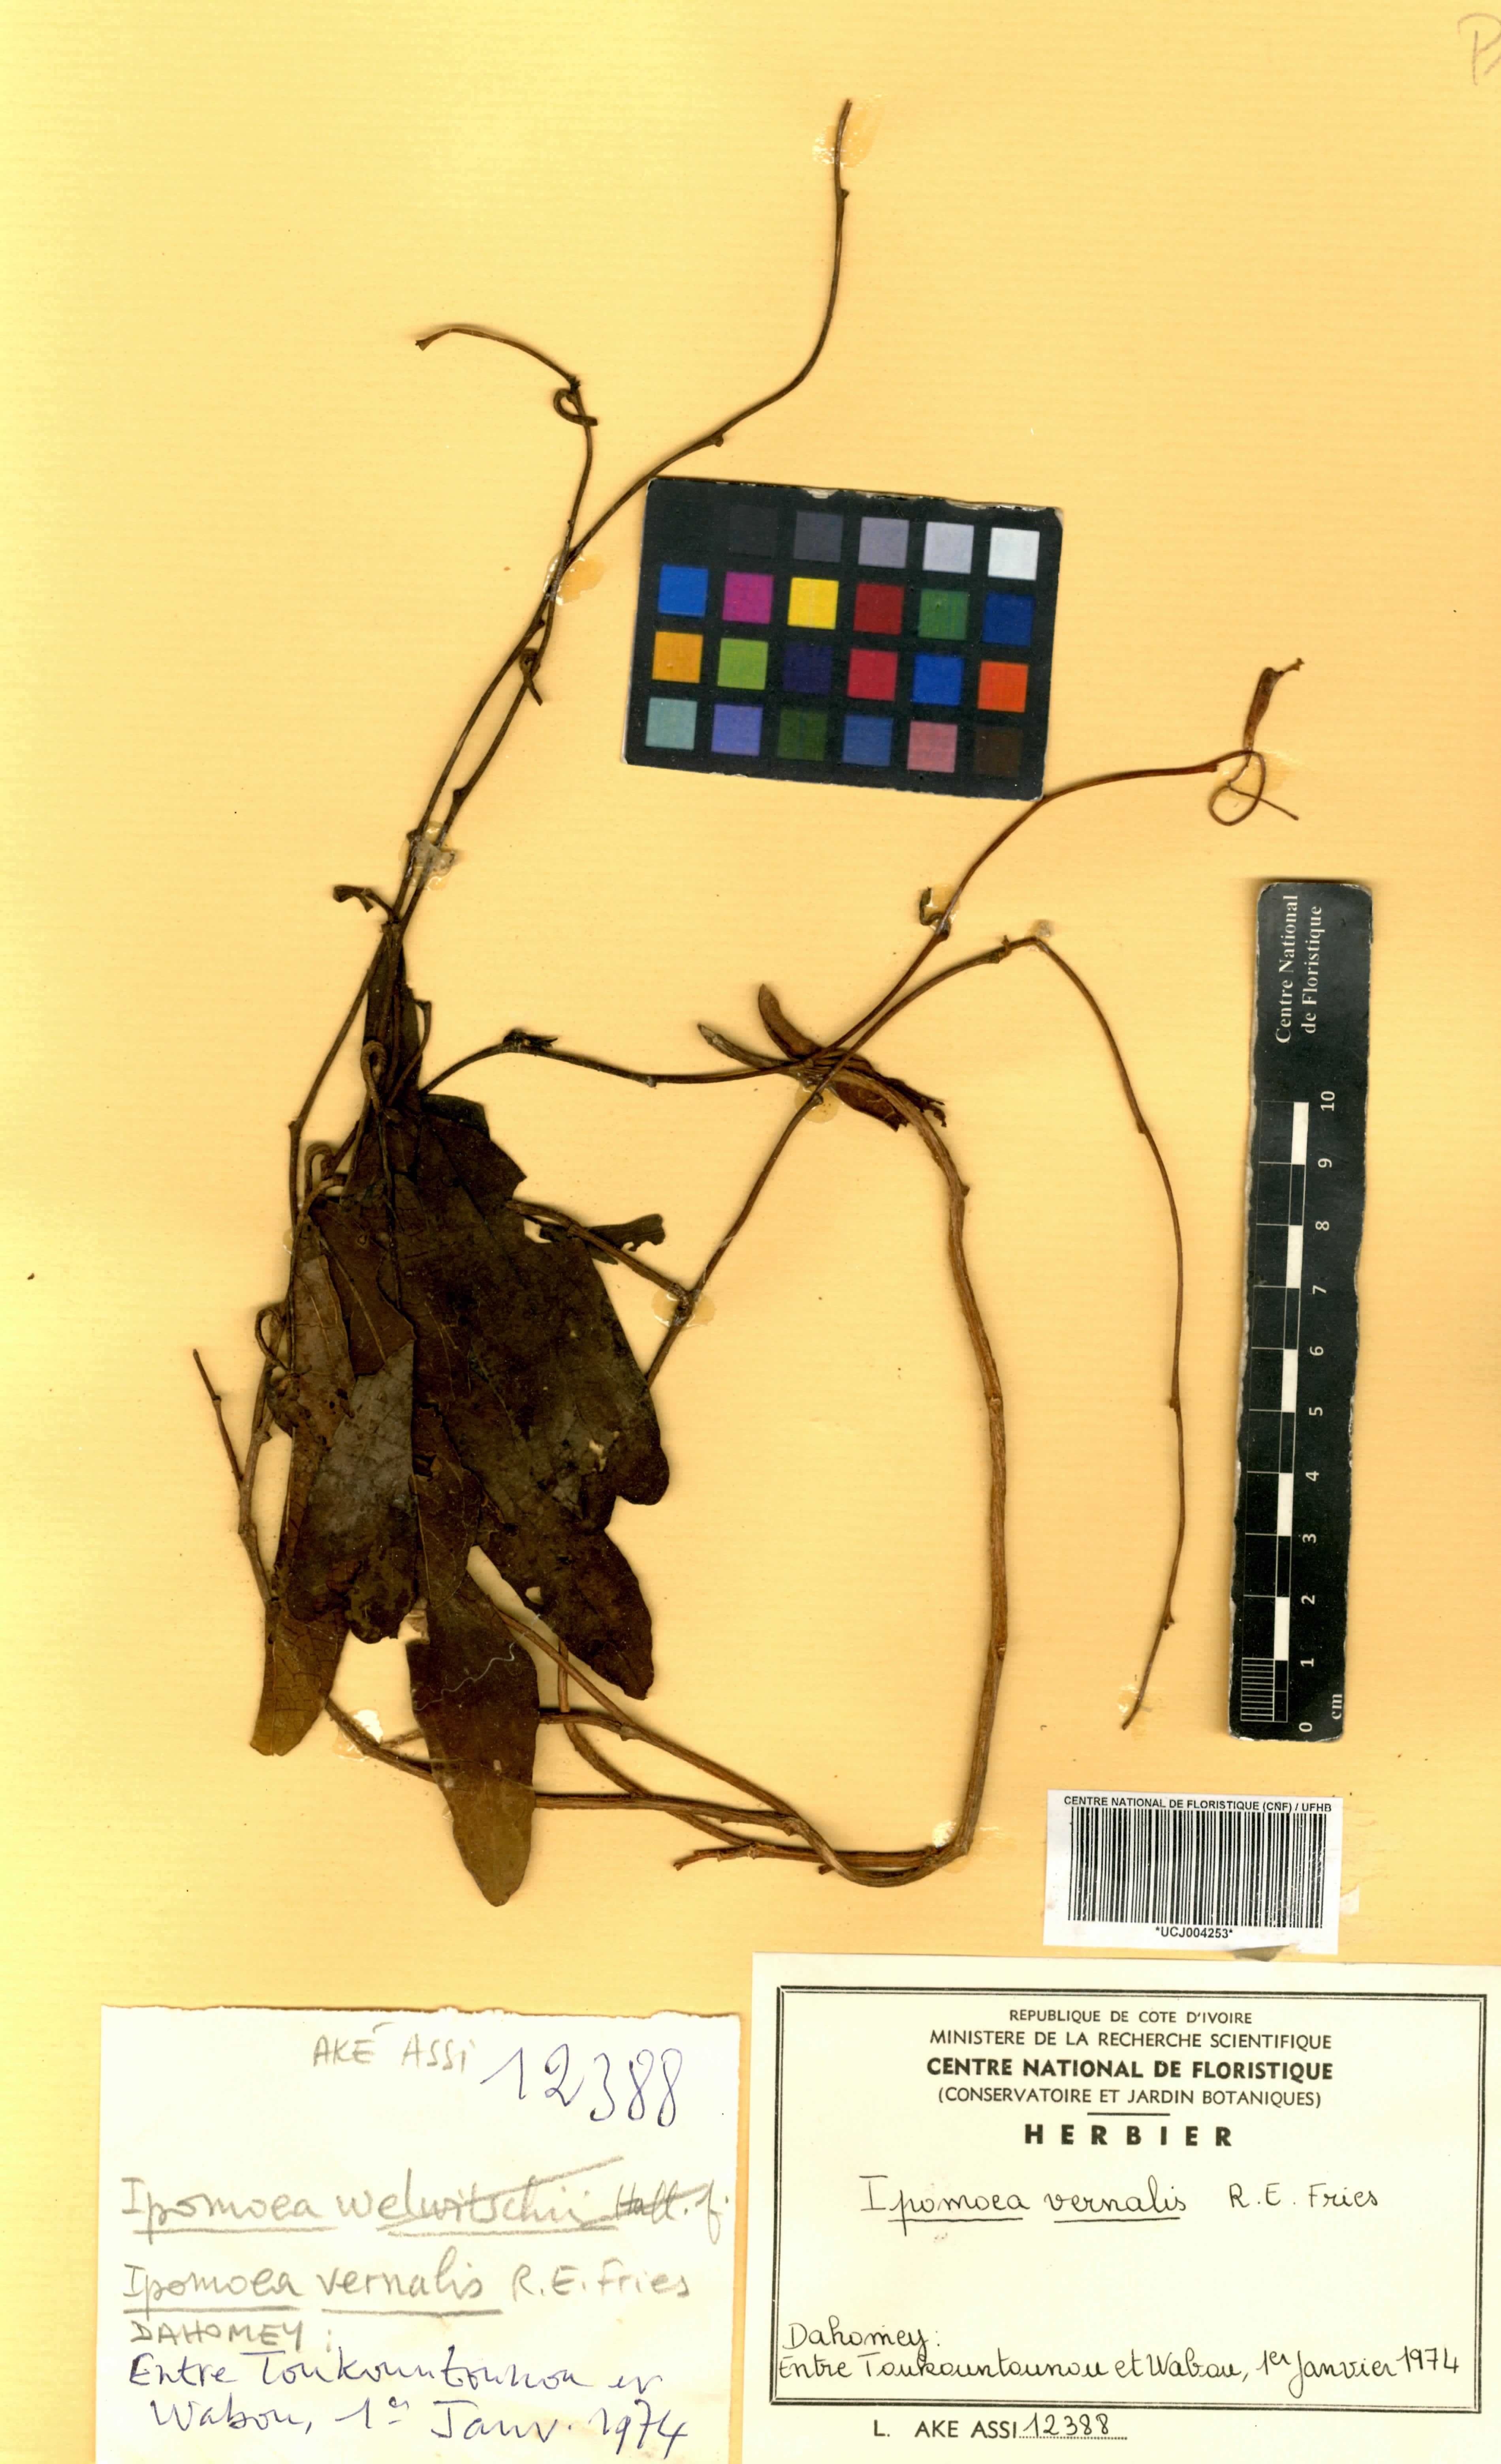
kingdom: Plantae
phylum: Tracheophyta
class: Magnoliopsida
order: Solanales
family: Convolvulaceae
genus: Ipomoea
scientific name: Ipomoea vernalis
